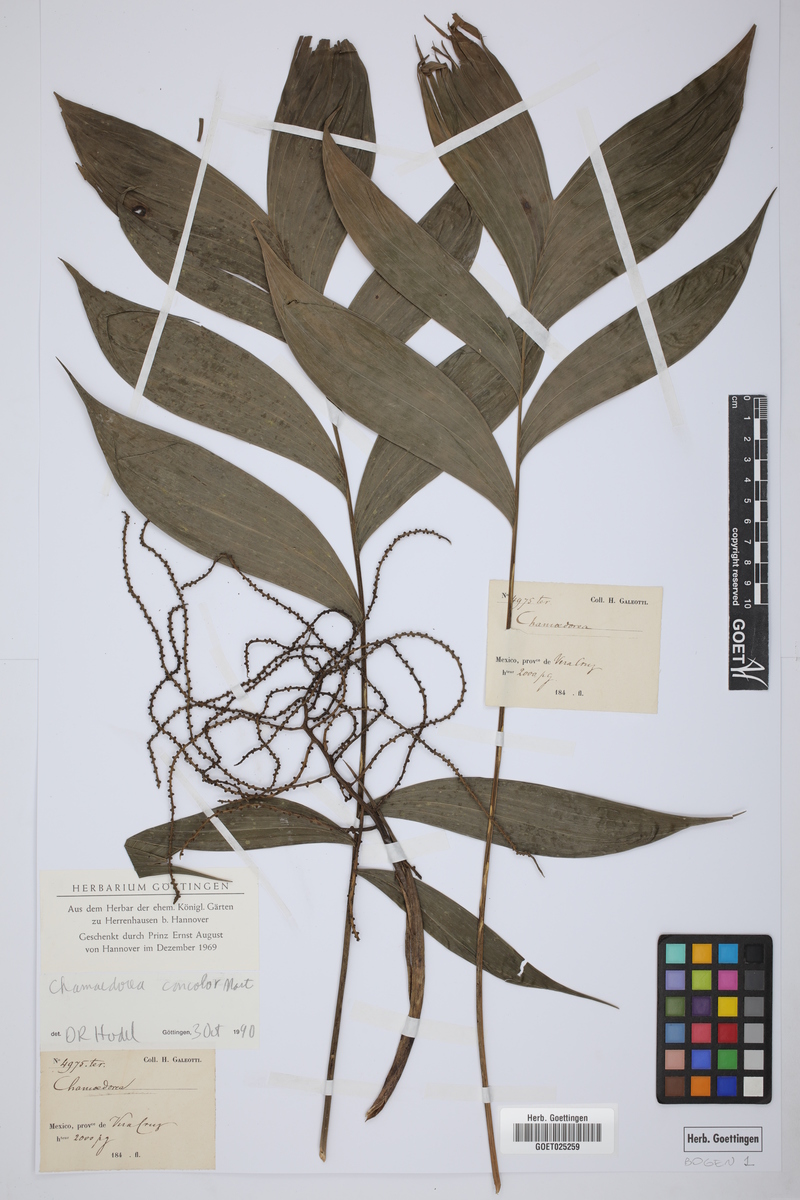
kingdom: Plantae
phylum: Tracheophyta
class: Liliopsida
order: Arecales
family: Arecaceae
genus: Chamaedorea
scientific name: Chamaedorea pinnatifrons
